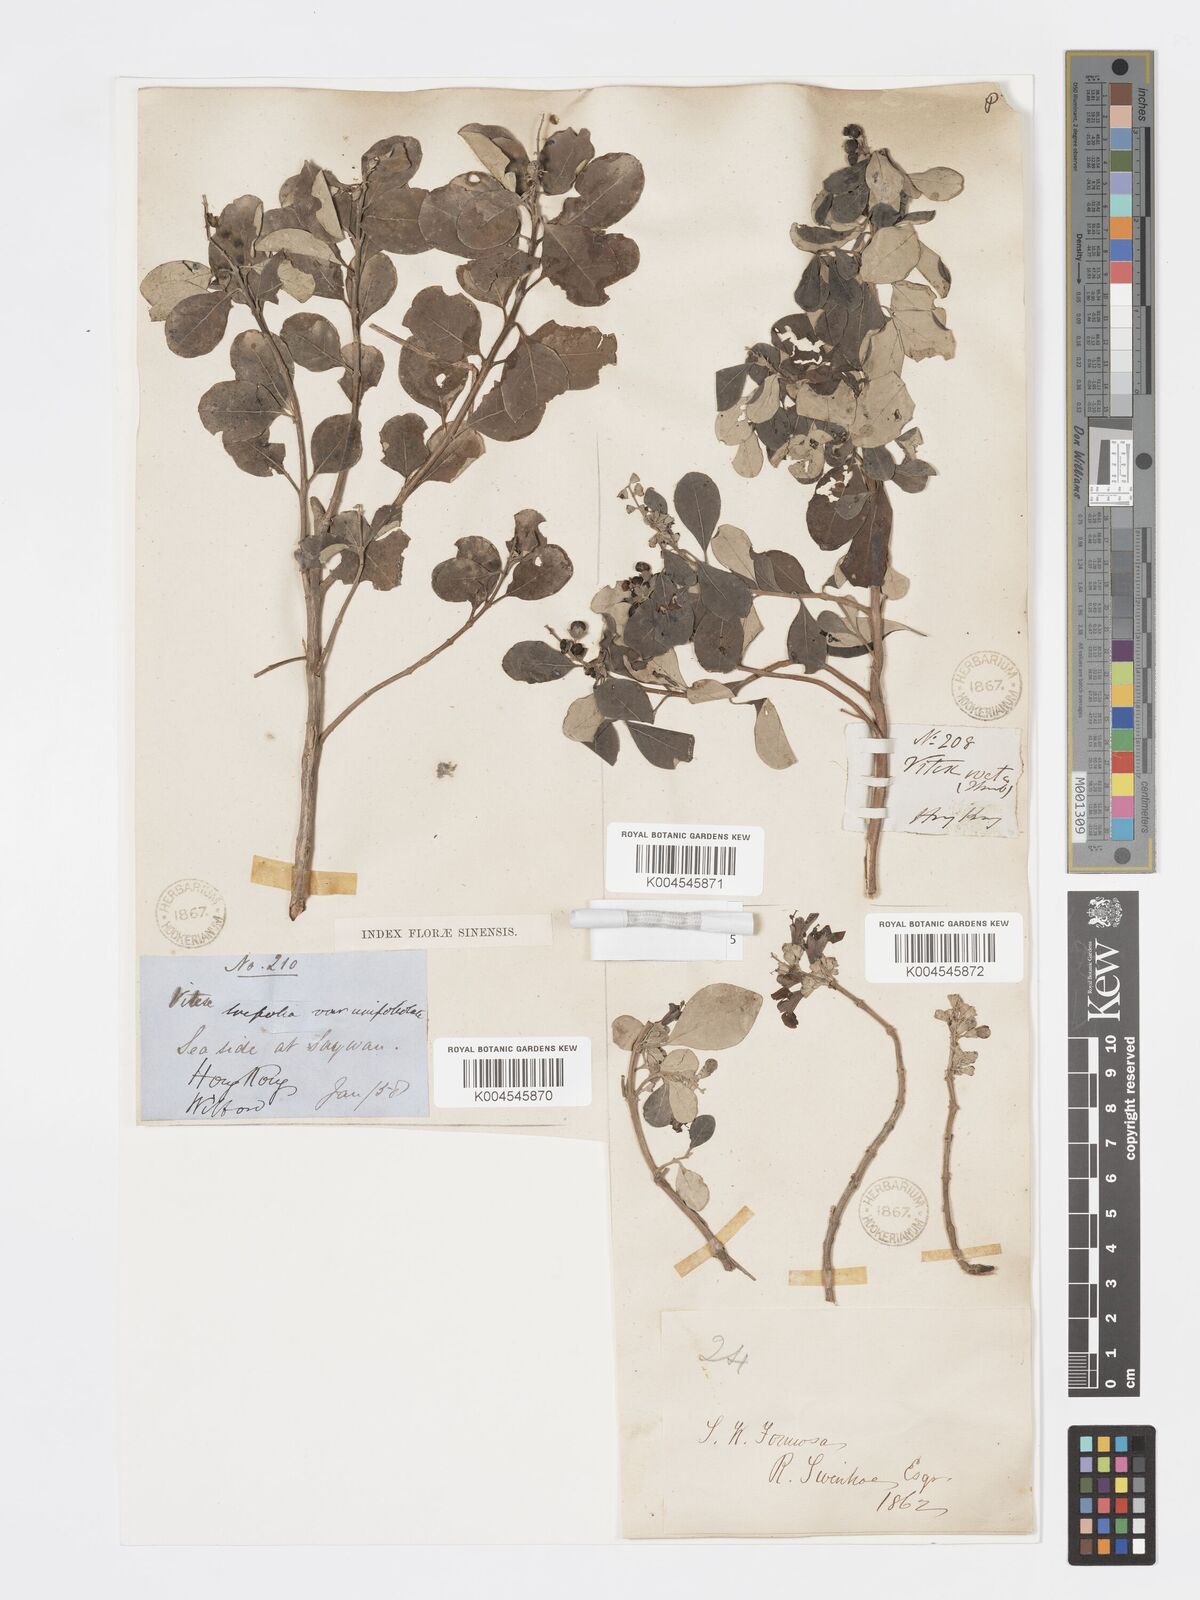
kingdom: Plantae
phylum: Tracheophyta
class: Magnoliopsida
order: Lamiales
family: Lamiaceae
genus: Vitex
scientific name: Vitex rotundifolia
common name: Beach vitex
